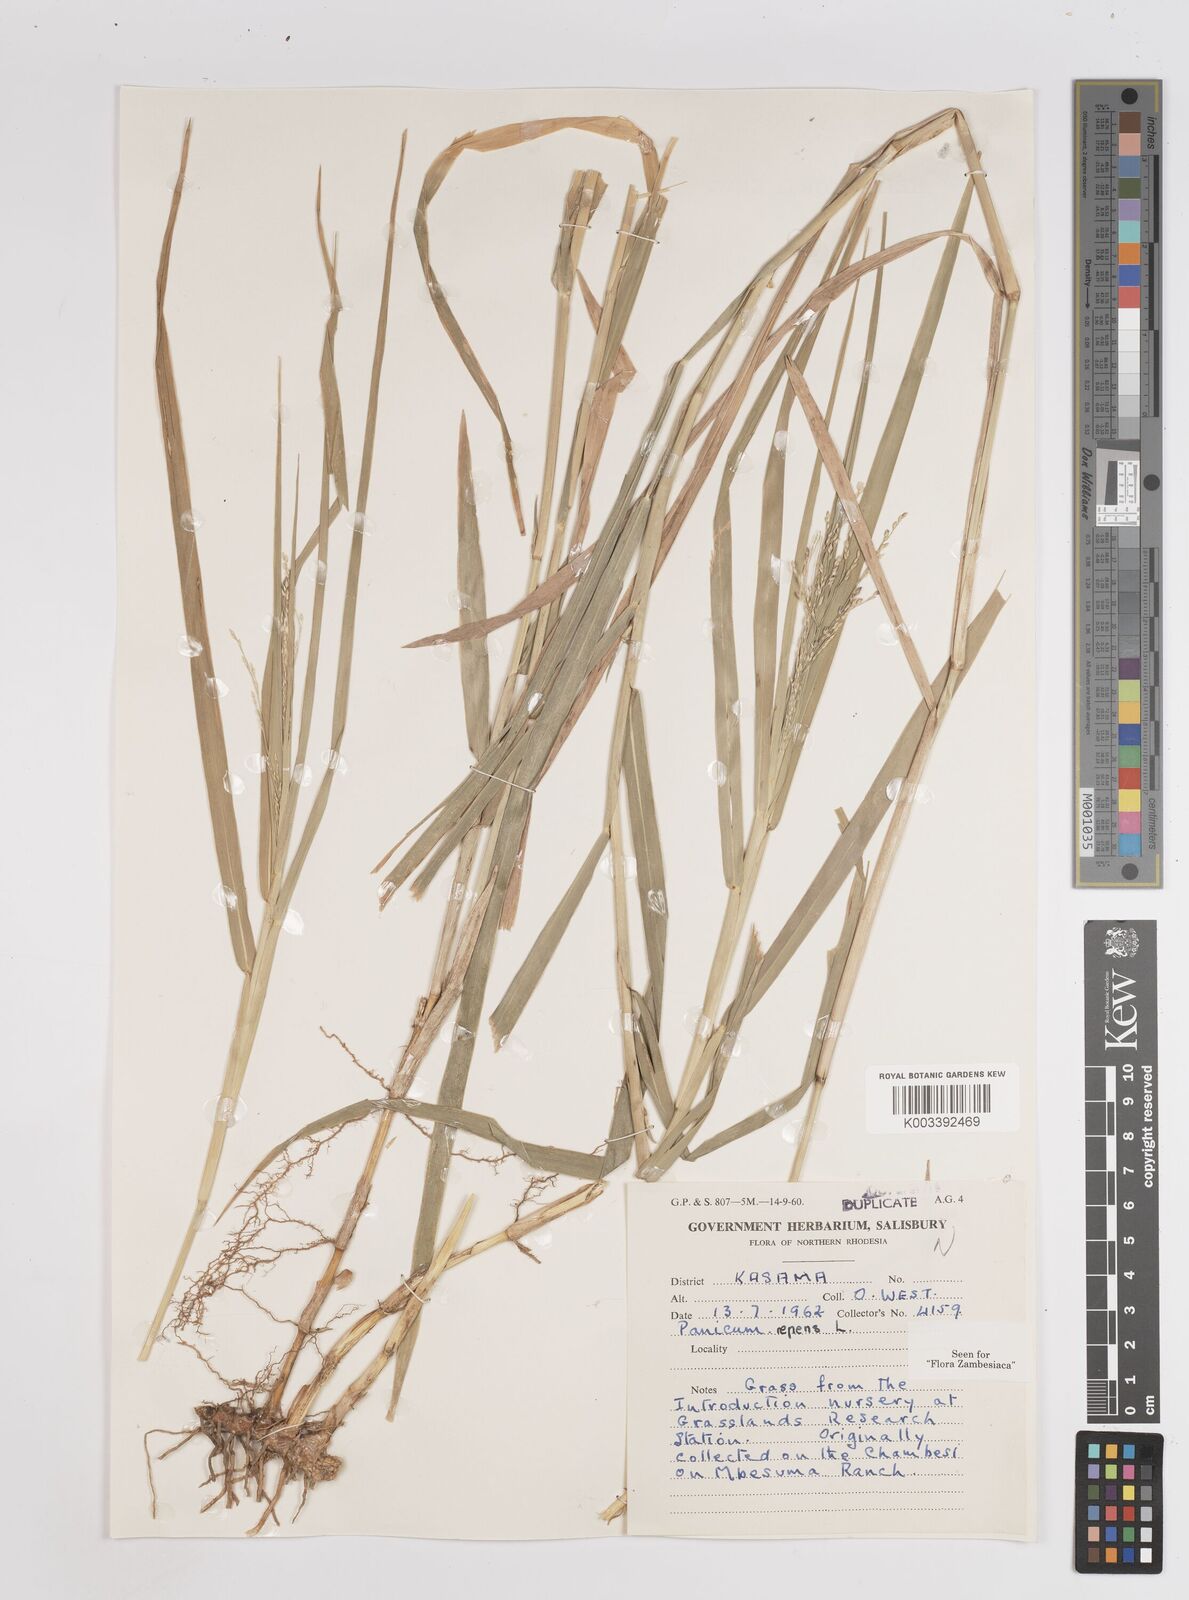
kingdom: Plantae
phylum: Tracheophyta
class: Liliopsida
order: Poales
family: Poaceae
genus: Panicum
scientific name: Panicum repens
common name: Torpedo grass
